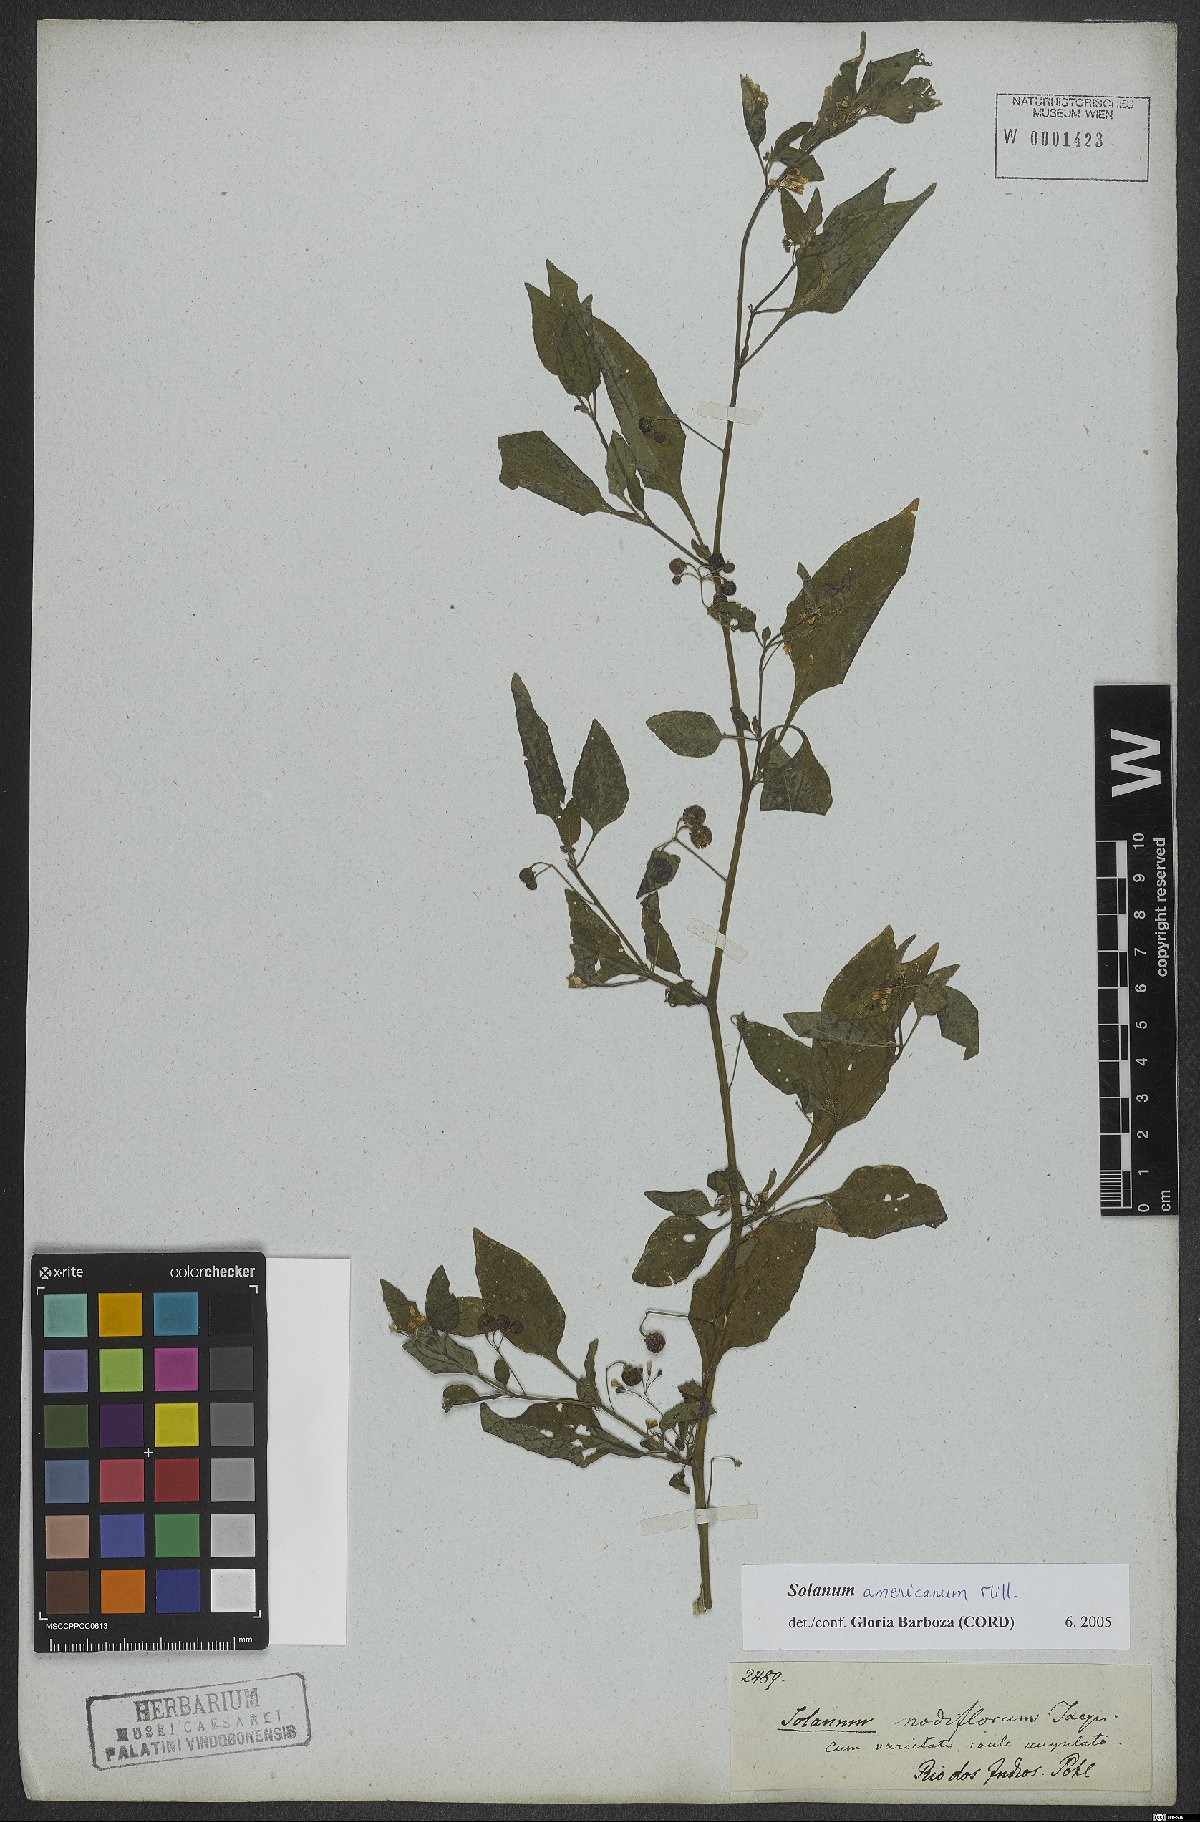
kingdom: Plantae
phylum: Tracheophyta
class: Magnoliopsida
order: Solanales
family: Solanaceae
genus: Solanum
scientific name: Solanum americanum
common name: American black nightshade
